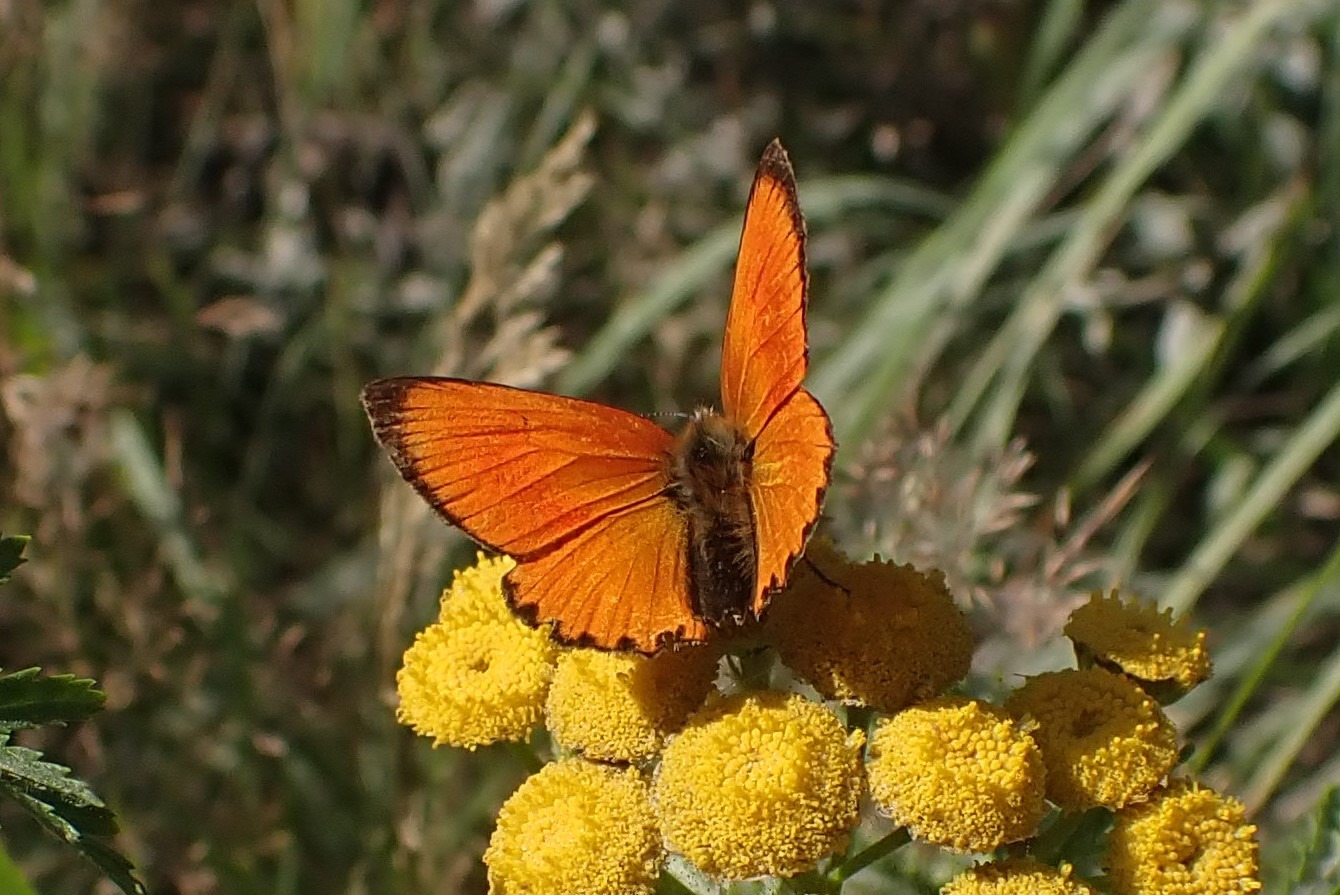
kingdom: Animalia
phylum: Arthropoda
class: Insecta
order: Lepidoptera
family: Lycaenidae
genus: Lycaena
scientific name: Lycaena virgaureae
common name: Dukatsommerfugl
